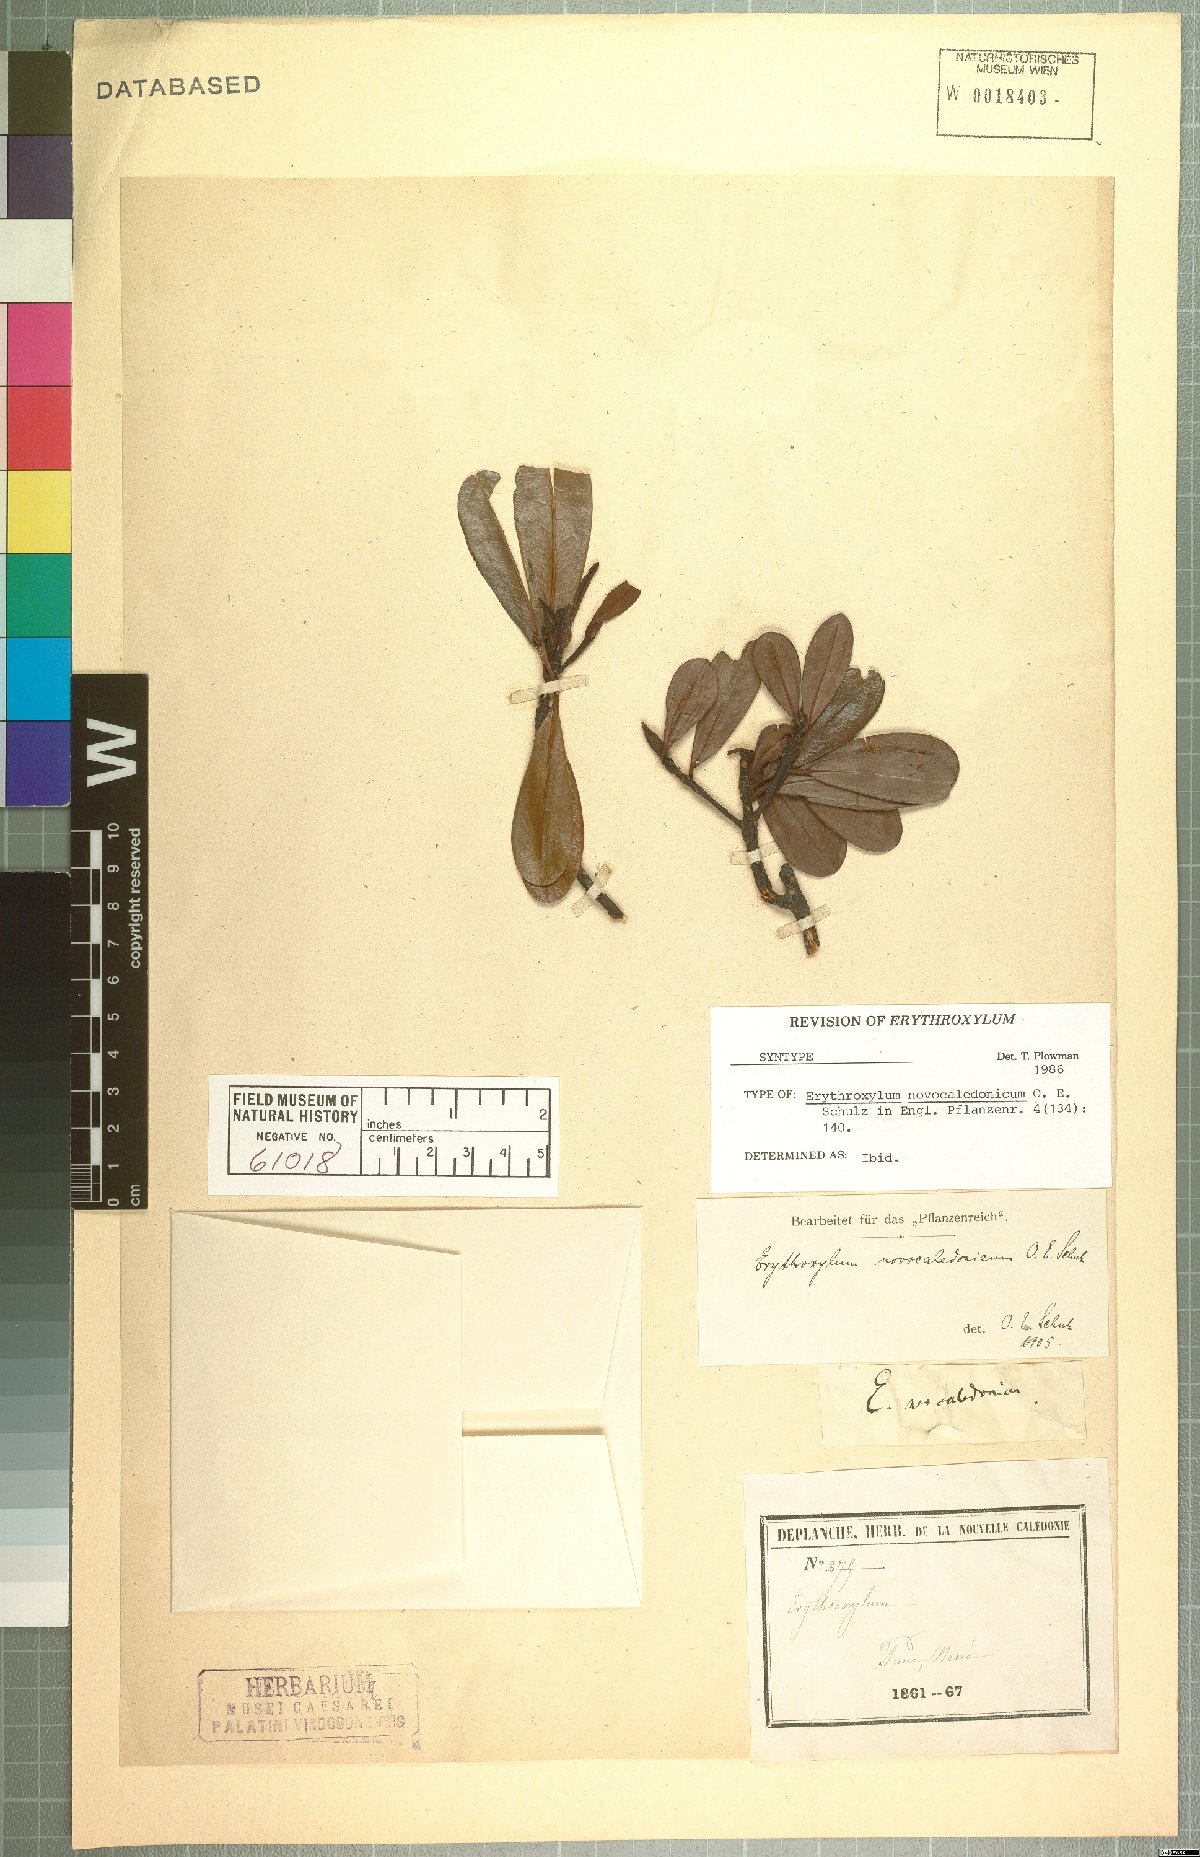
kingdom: Plantae
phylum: Tracheophyta
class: Magnoliopsida
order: Malpighiales
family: Erythroxylaceae
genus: Erythroxylum
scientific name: Erythroxylum novocaledonicum
